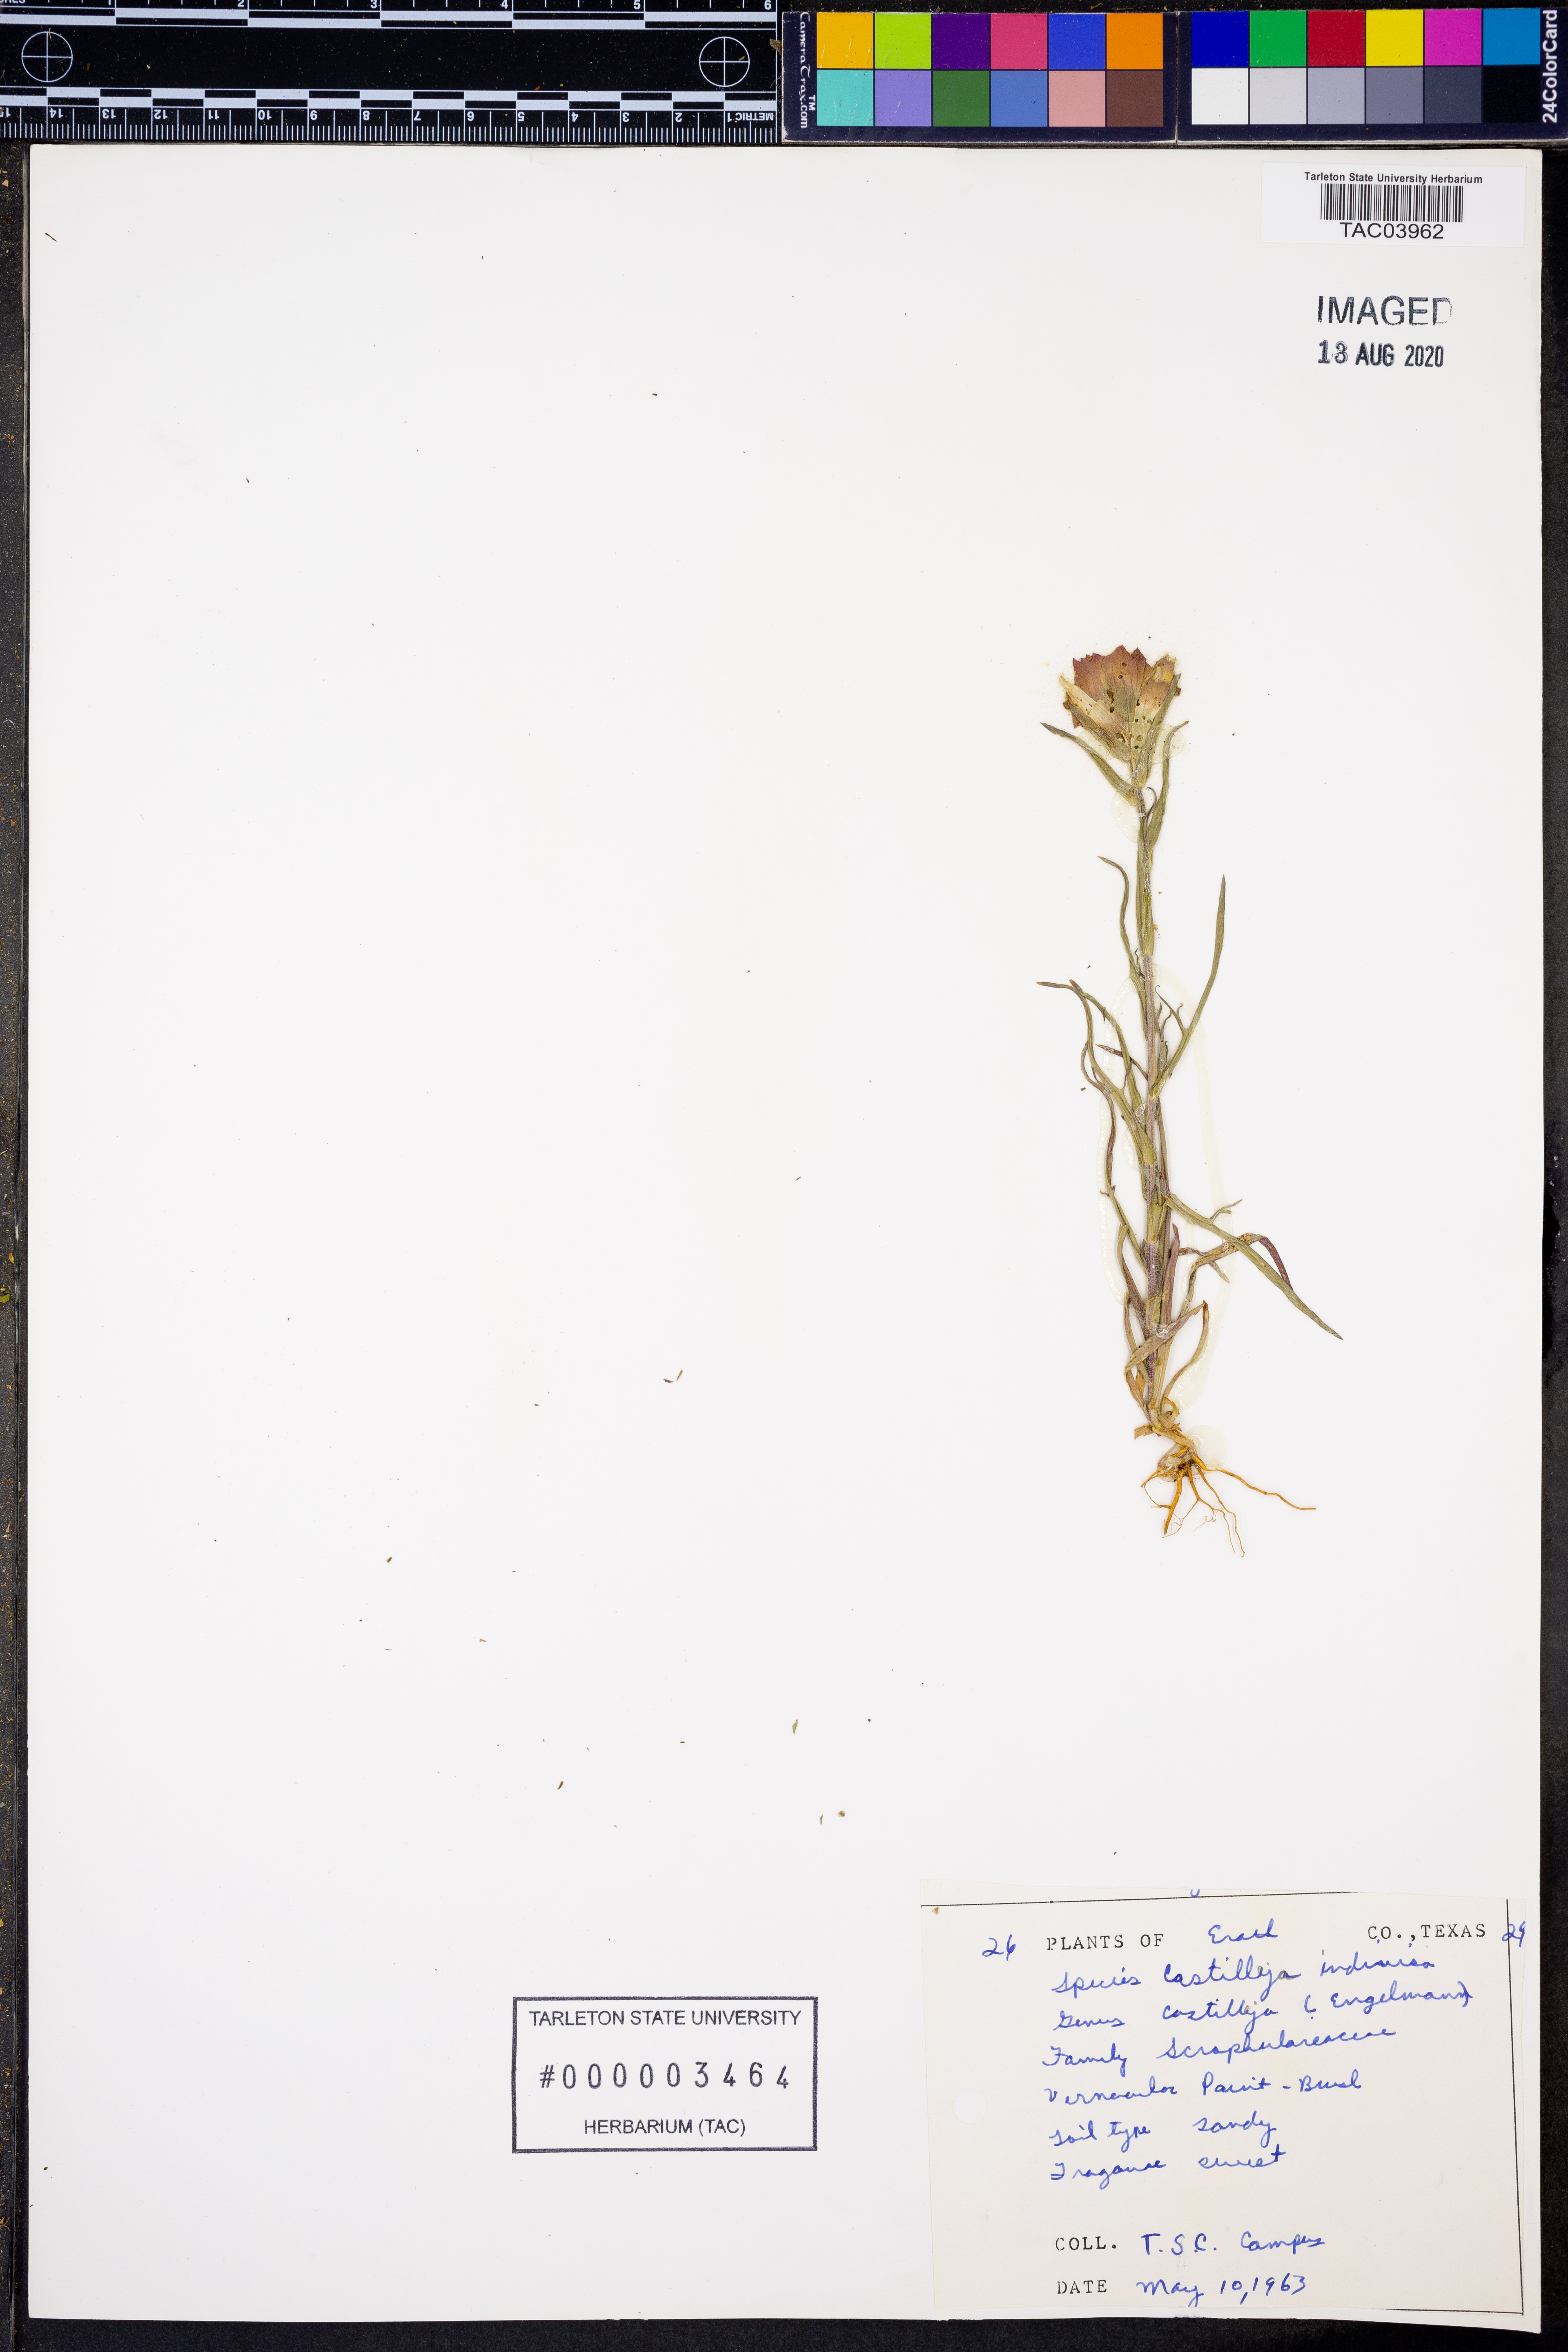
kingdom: Plantae
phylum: Tracheophyta
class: Magnoliopsida
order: Lamiales
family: Orobanchaceae
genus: Castilleja
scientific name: Castilleja indivisa
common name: Texas paintbrush
